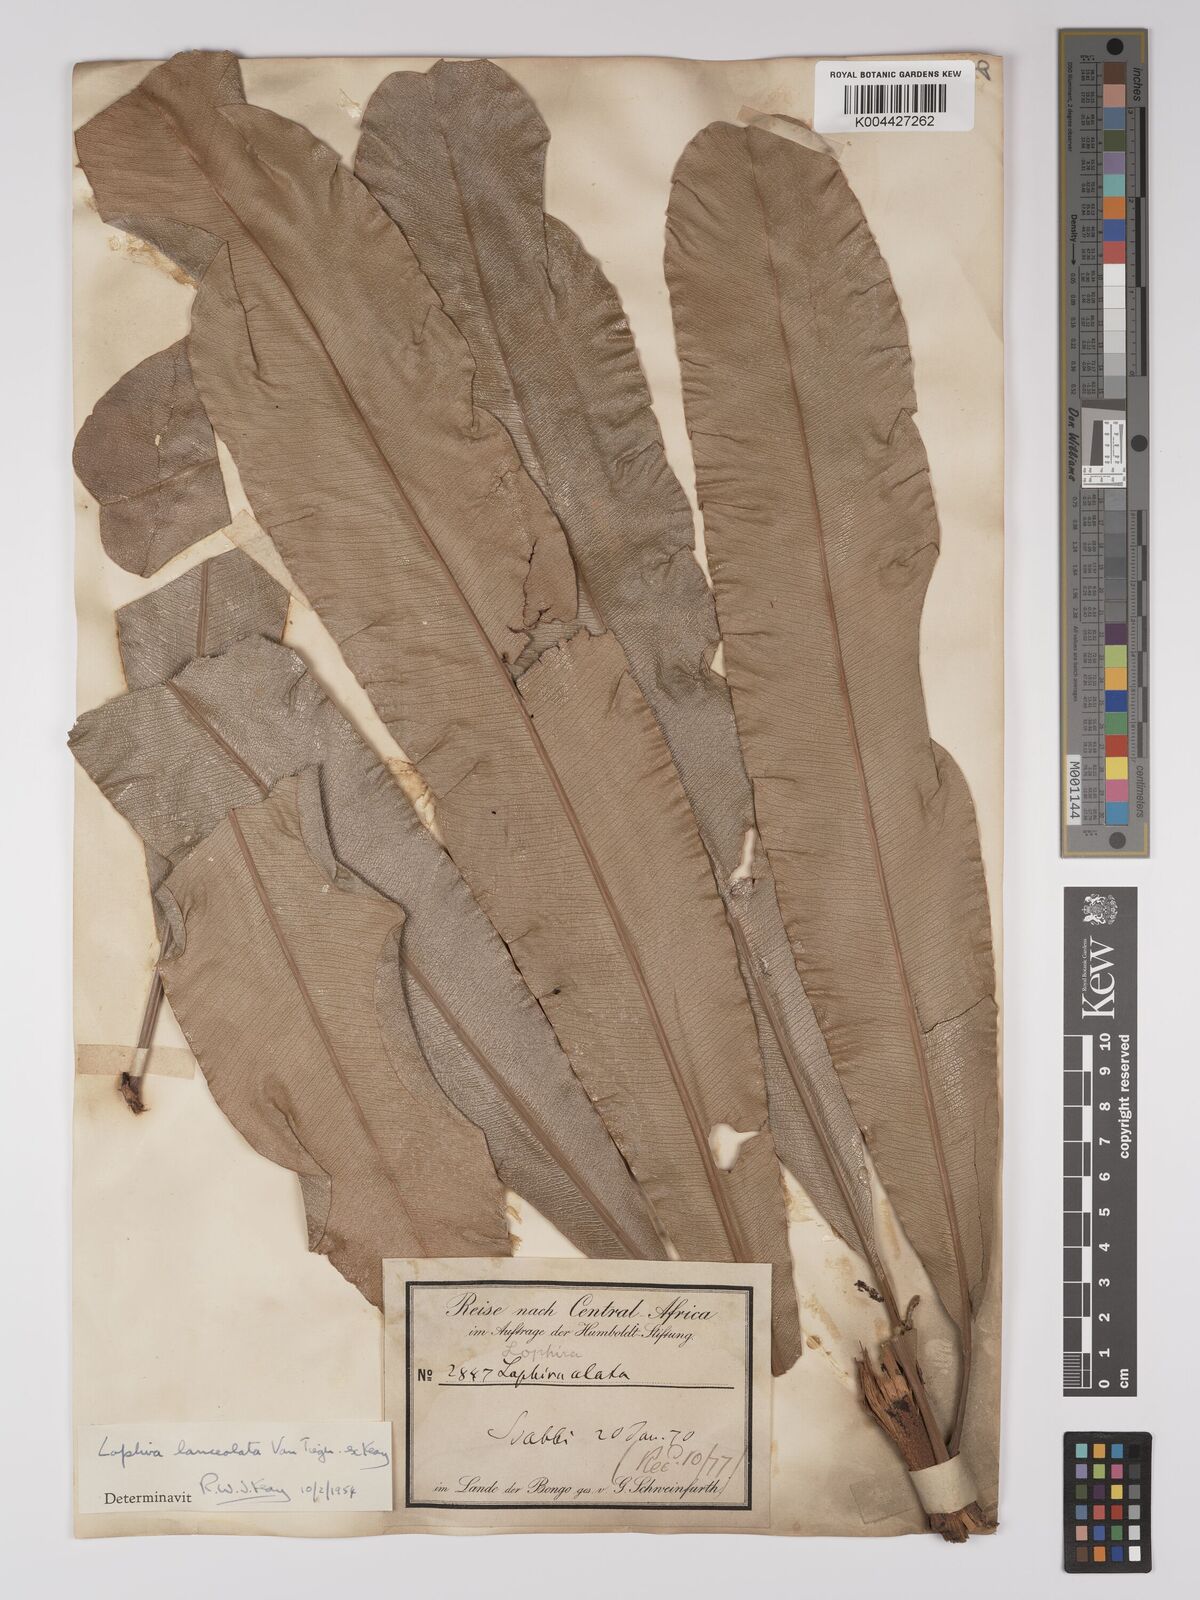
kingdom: Plantae
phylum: Tracheophyta
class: Magnoliopsida
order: Malpighiales
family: Ochnaceae
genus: Lophira
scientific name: Lophira lanceolata
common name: Dwarf red ironwood
